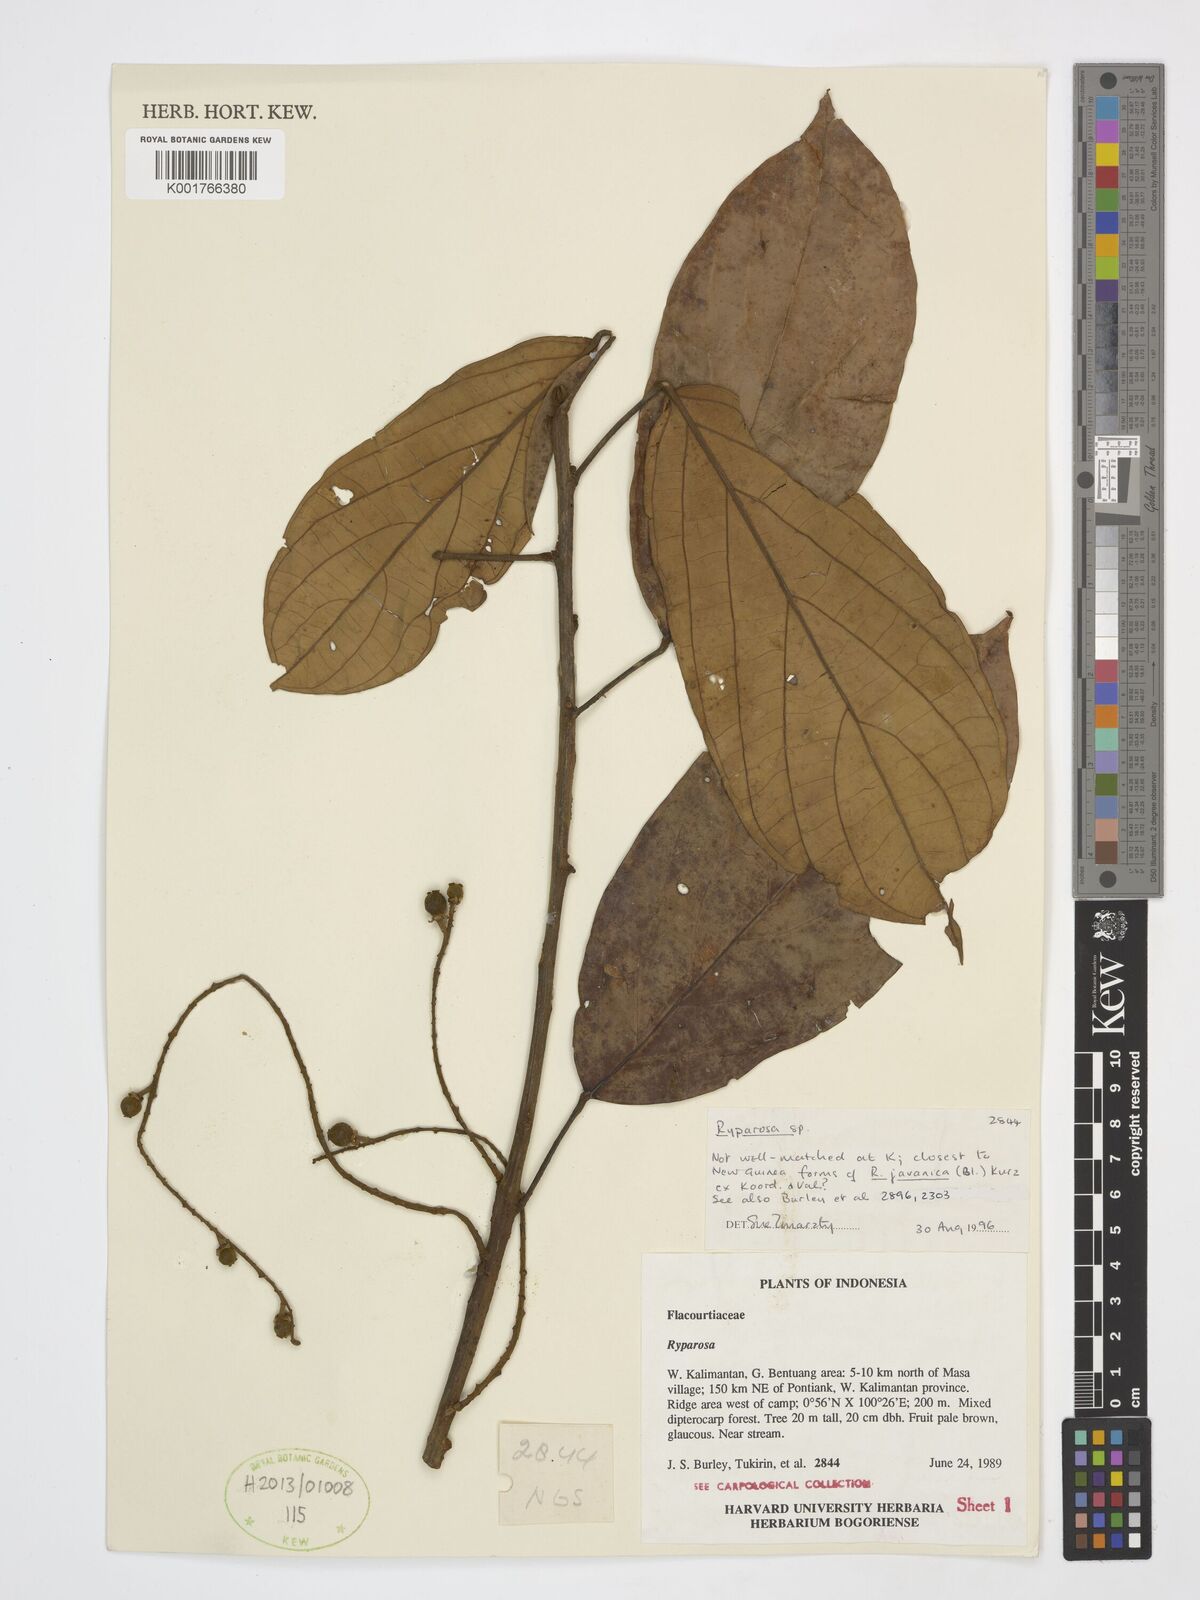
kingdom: Plantae
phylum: Tracheophyta
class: Magnoliopsida
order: Malpighiales
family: Achariaceae
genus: Ryparosa
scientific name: Ryparosa
